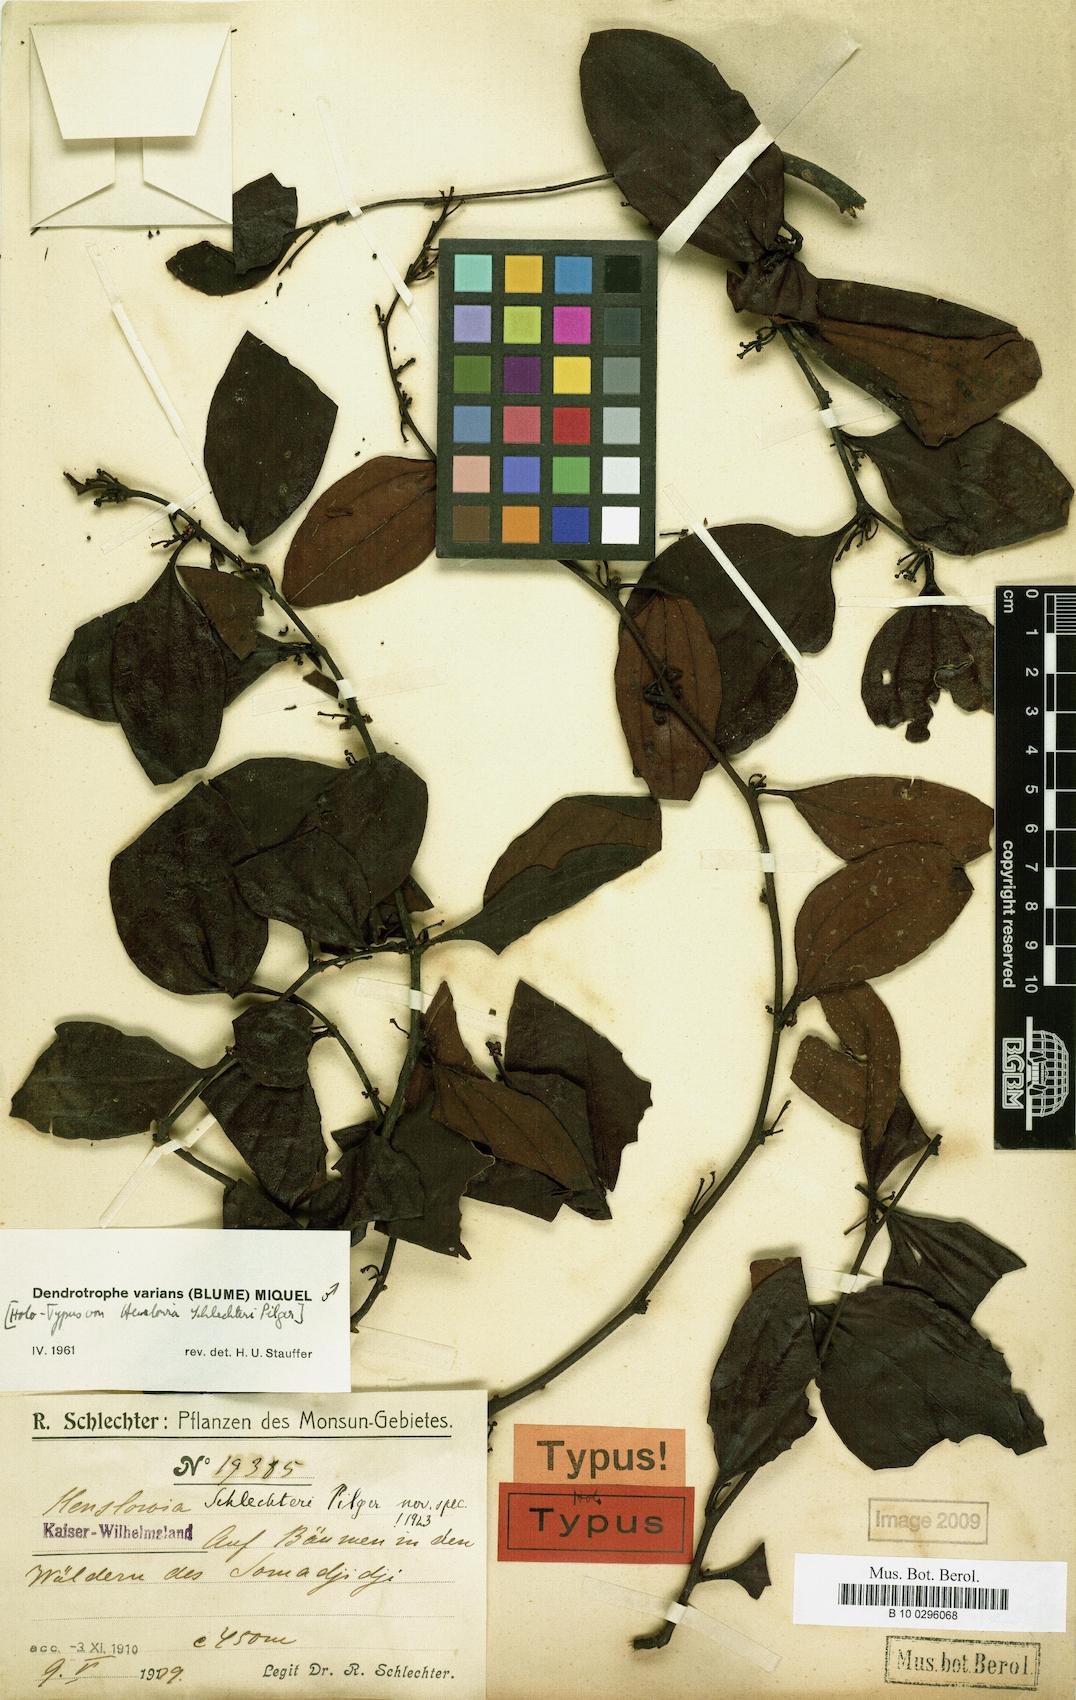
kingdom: Plantae
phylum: Tracheophyta
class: Magnoliopsida
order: Santalales
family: Amphorogynaceae
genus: Dendrotrophe
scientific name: Dendrotrophe varians
